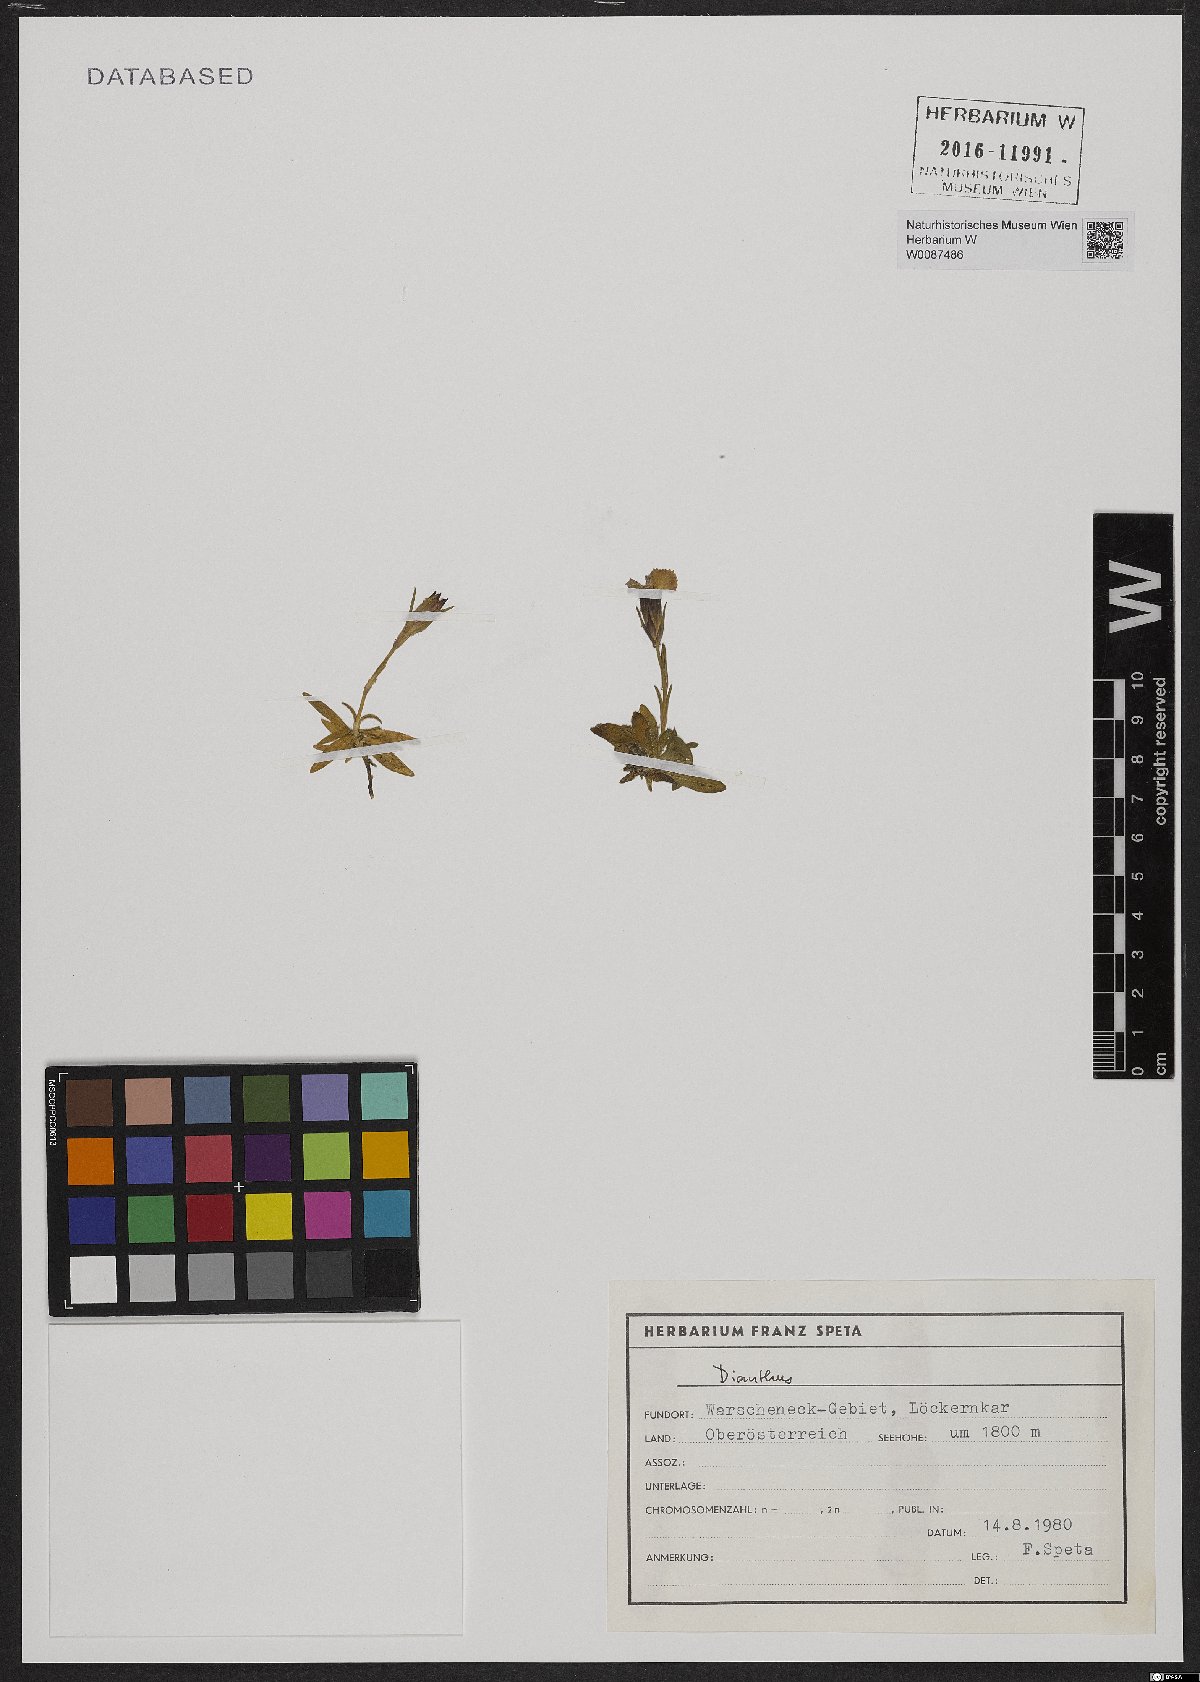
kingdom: Plantae
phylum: Tracheophyta
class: Magnoliopsida
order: Caryophyllales
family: Caryophyllaceae
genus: Dianthus
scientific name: Dianthus alpinus
